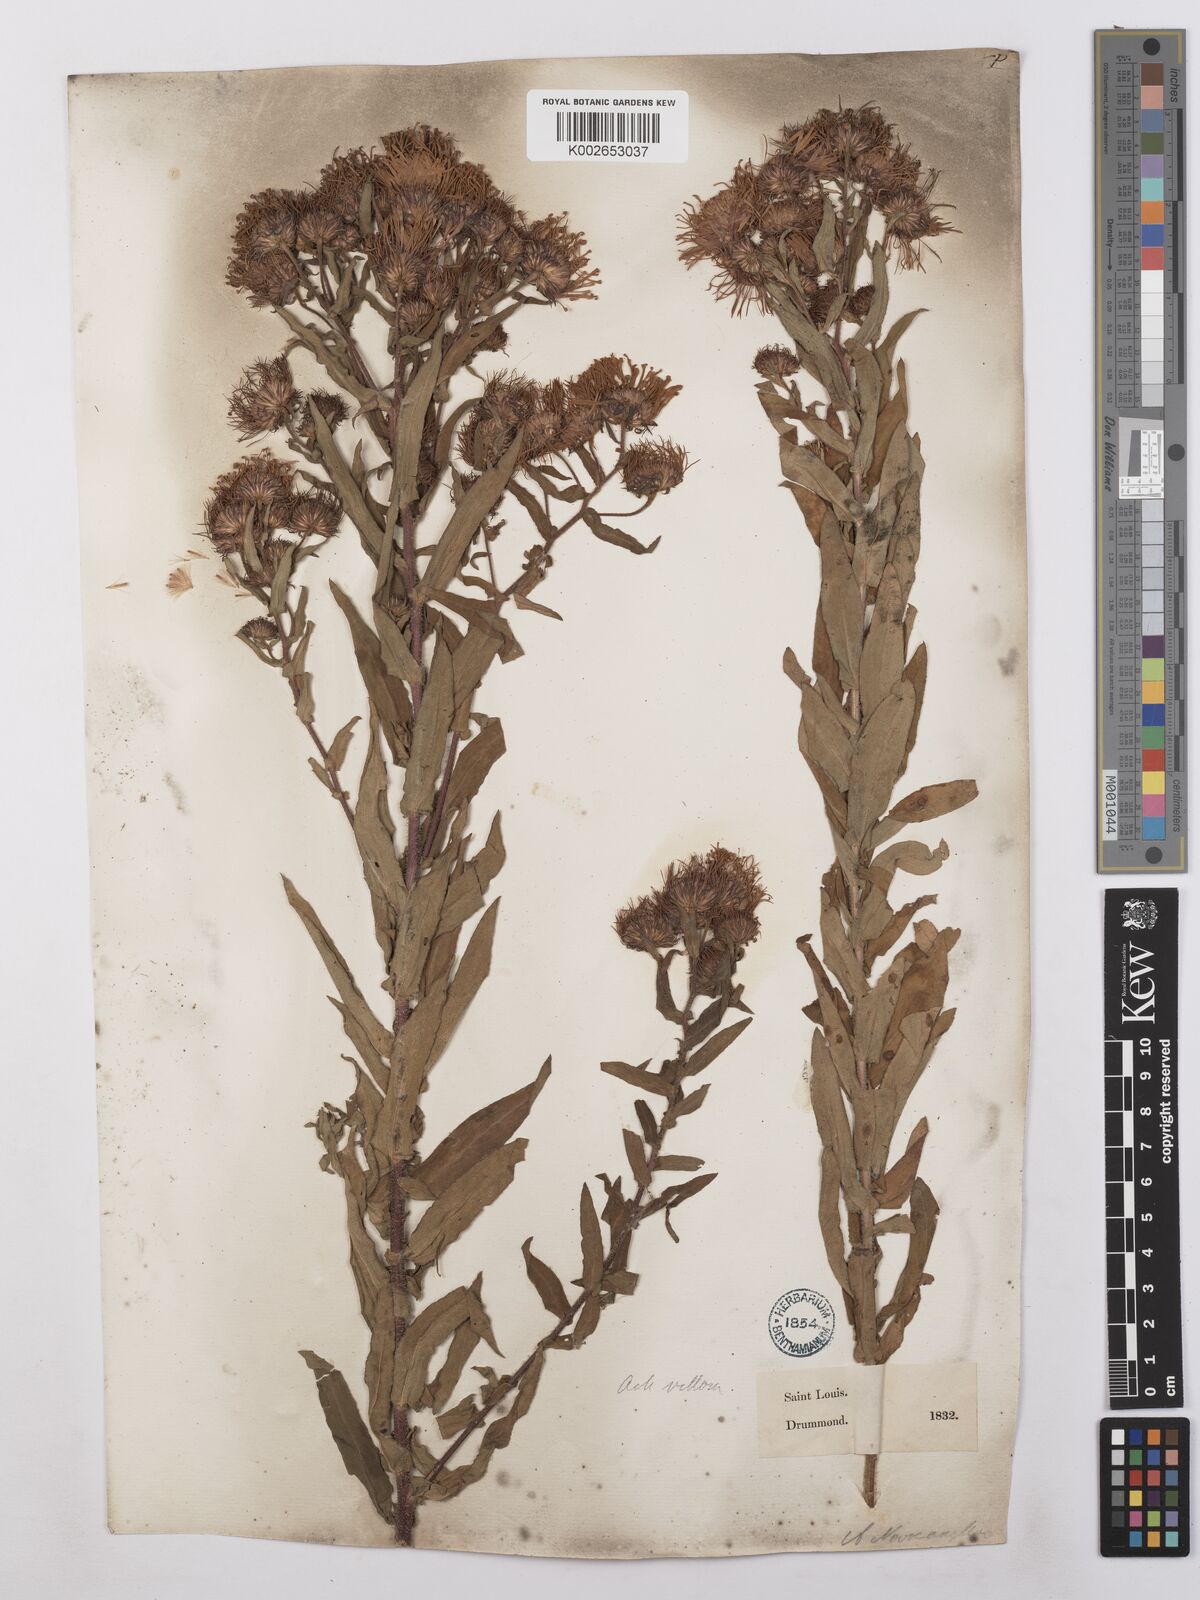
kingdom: Plantae
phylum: Tracheophyta
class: Magnoliopsida
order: Asterales
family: Asteraceae
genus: Symphyotrichum
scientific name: Symphyotrichum novae-angliae
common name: Michaelmas daisy
